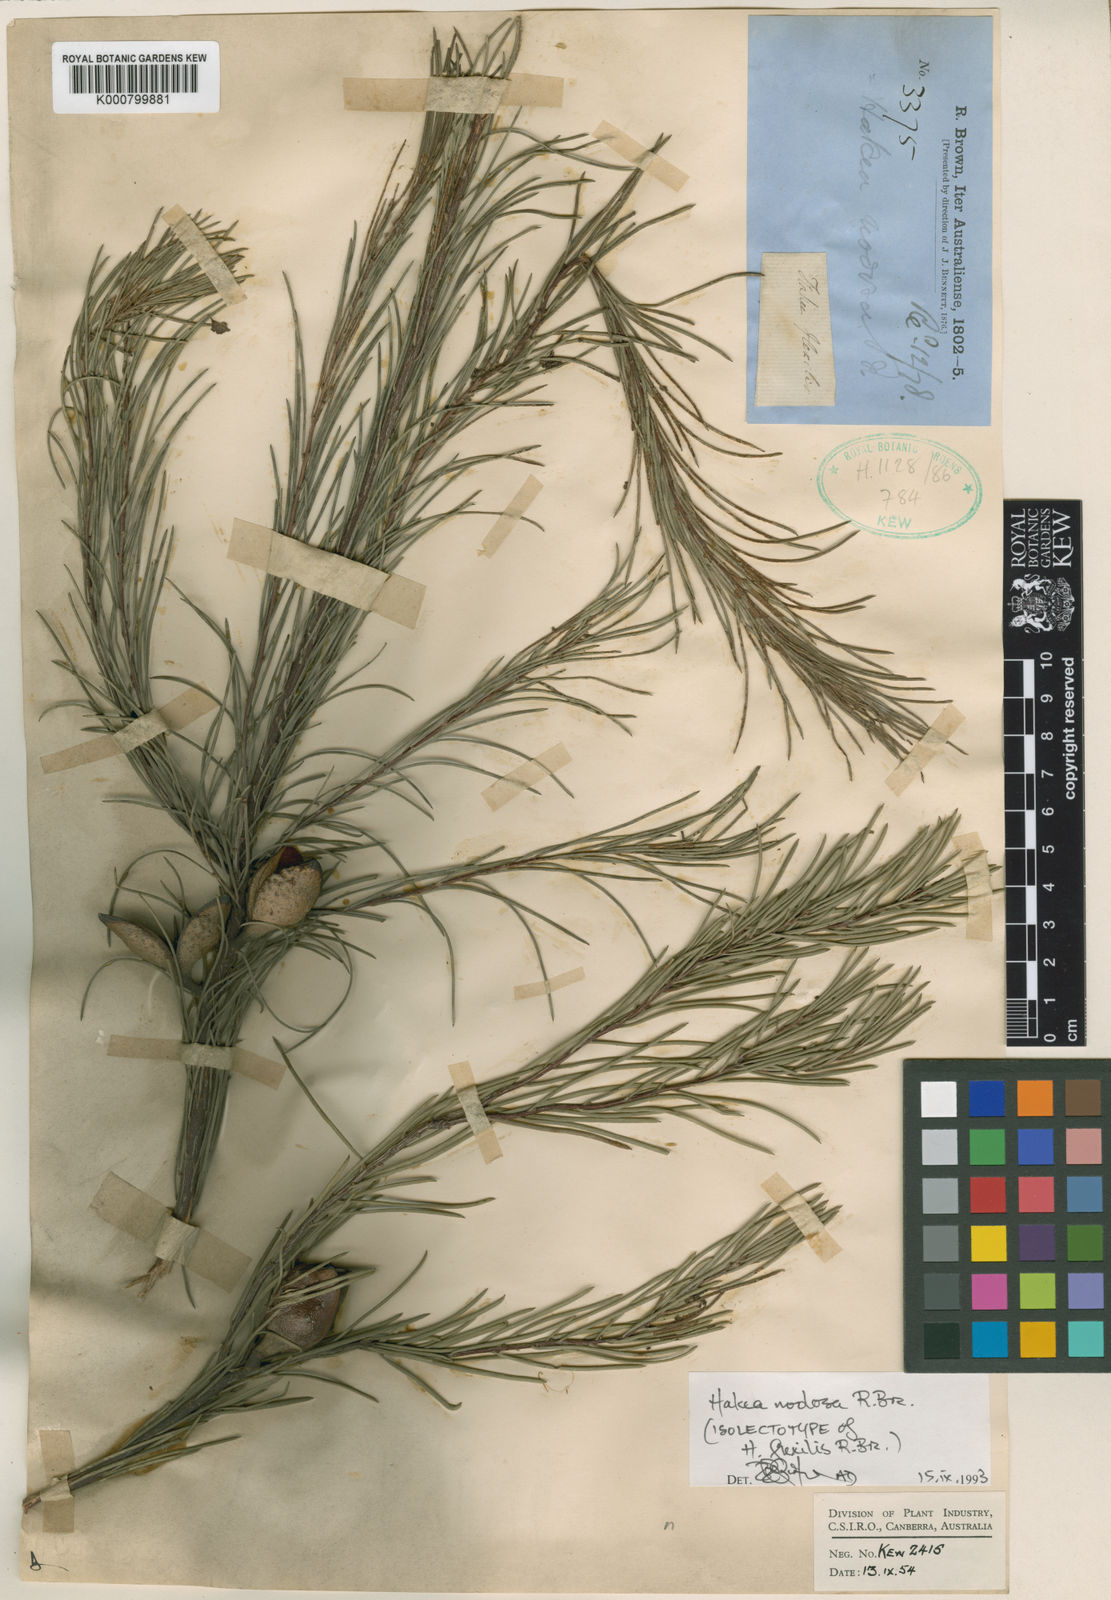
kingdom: Plantae
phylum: Tracheophyta
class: Magnoliopsida
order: Proteales
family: Proteaceae
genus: Hakea
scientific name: Hakea nodosa
